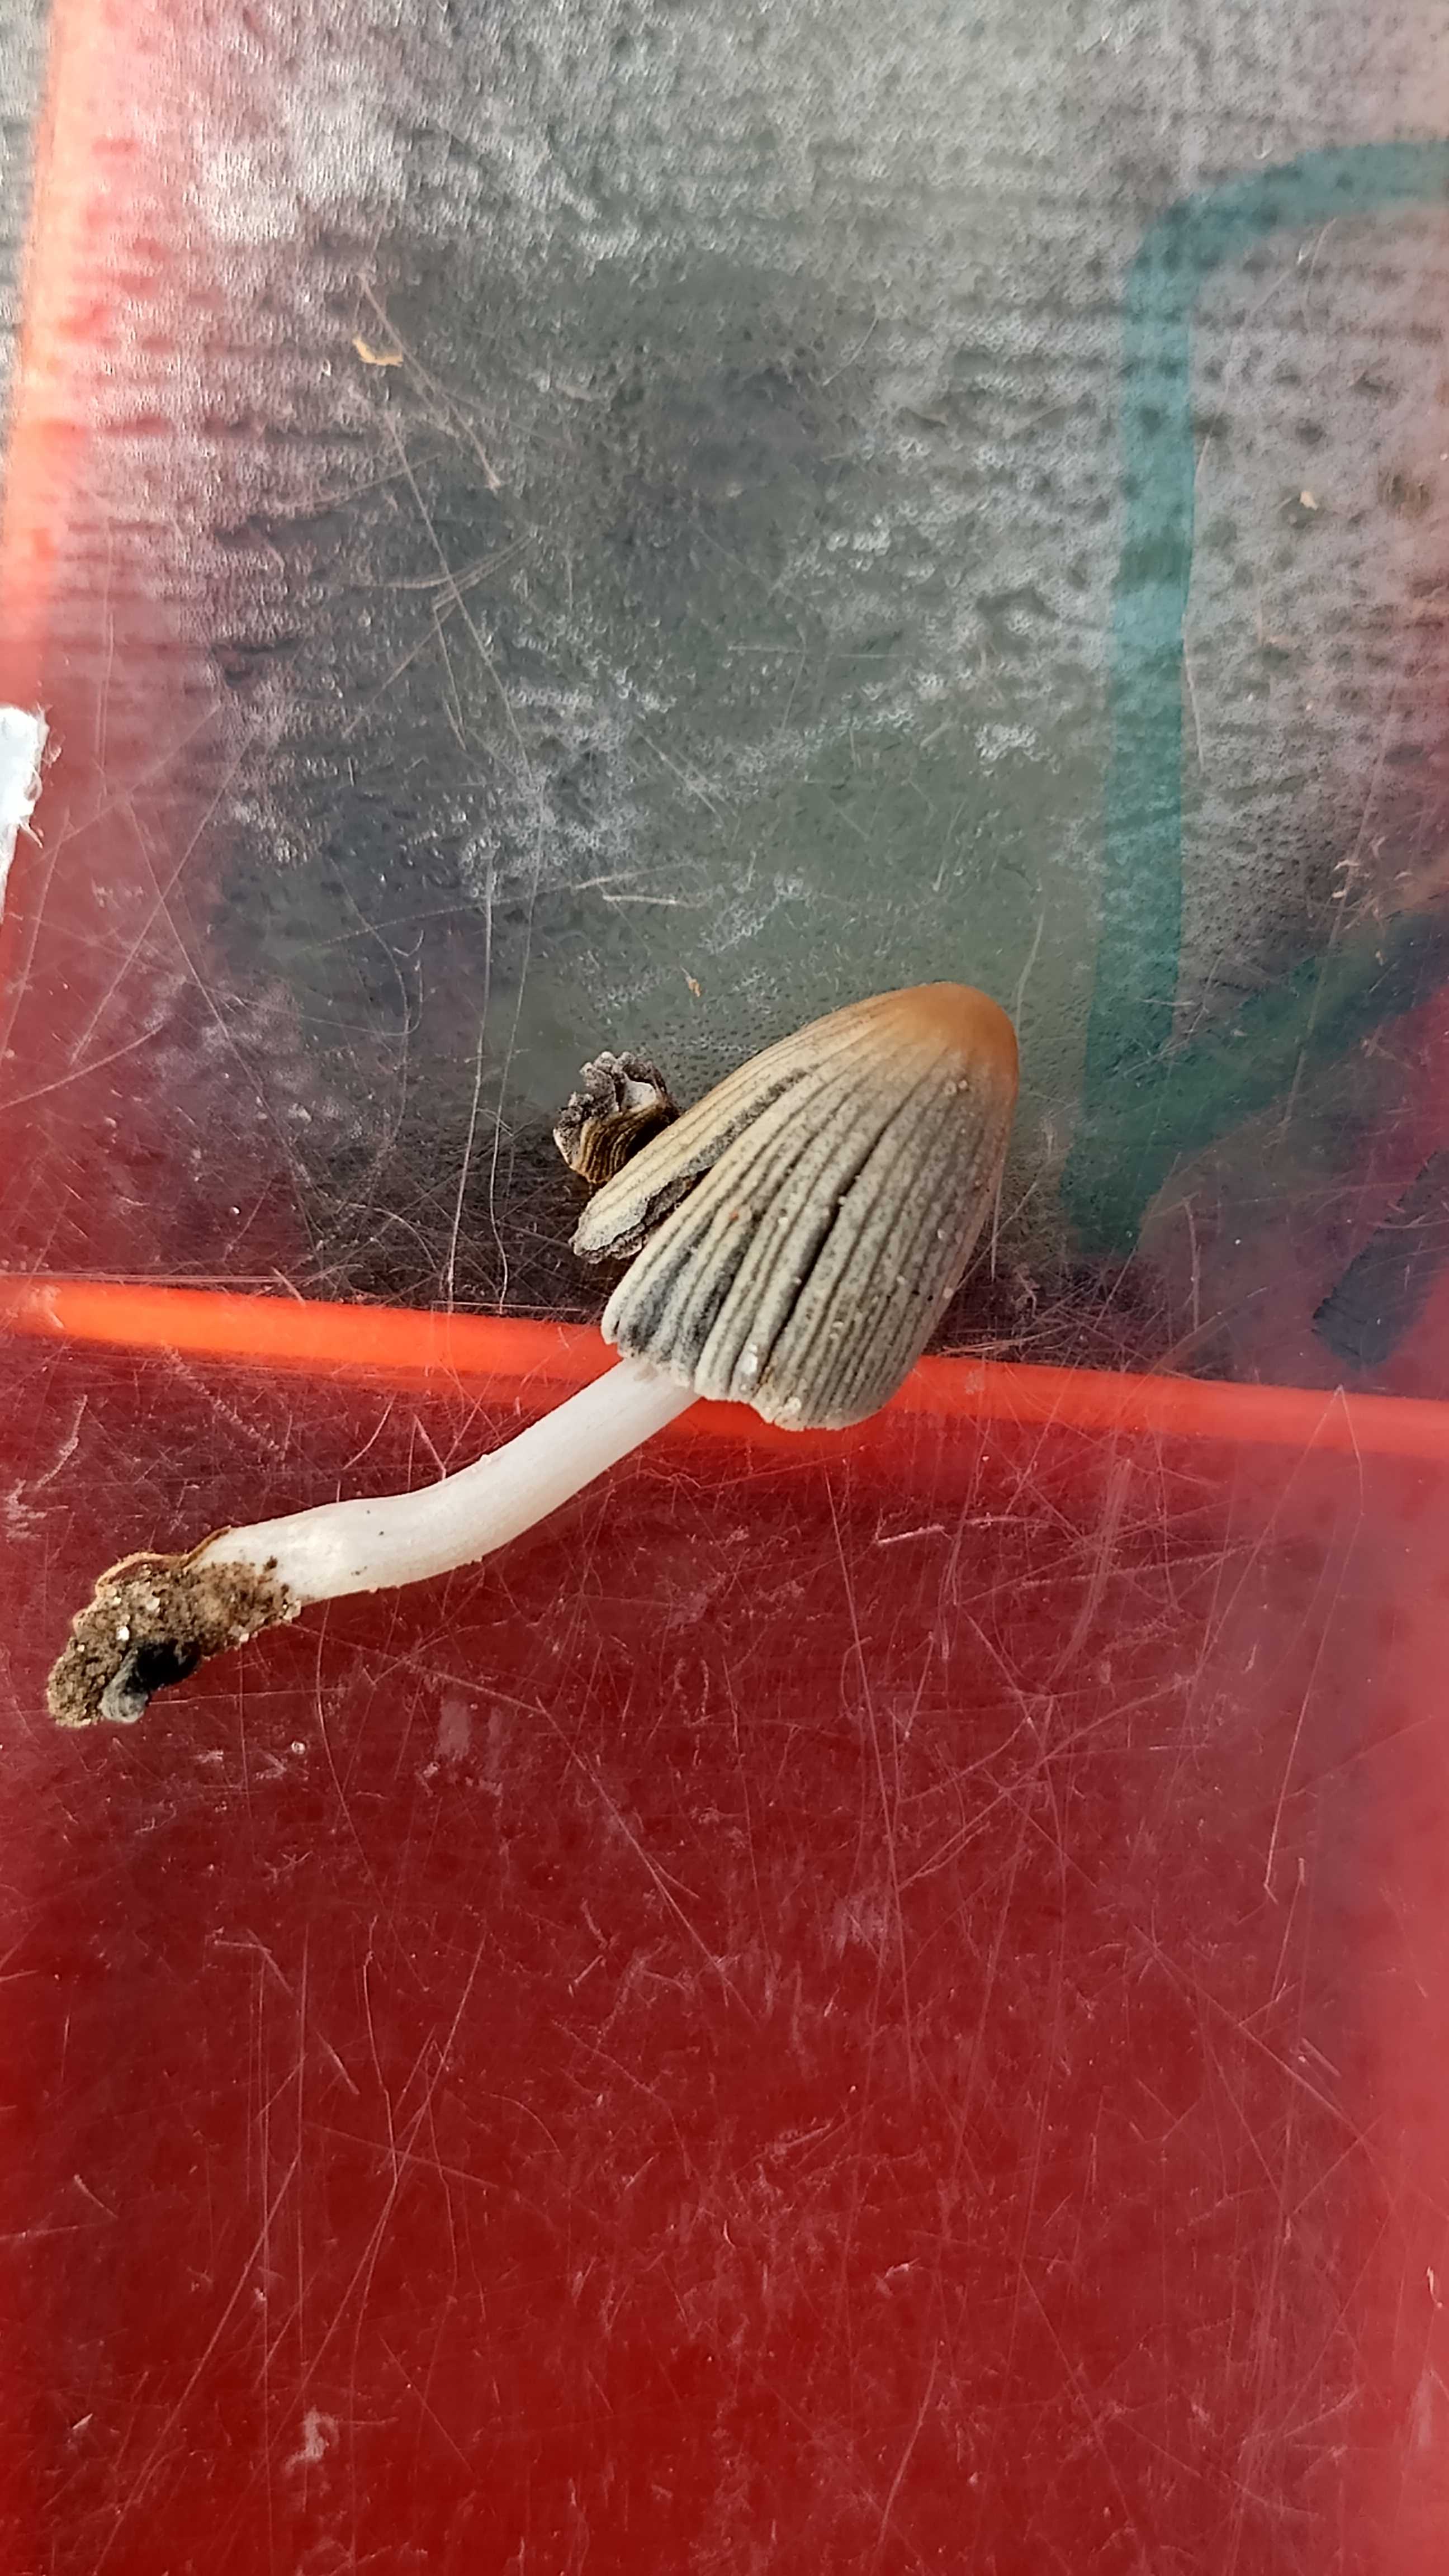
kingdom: Fungi
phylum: Basidiomycota
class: Agaricomycetes
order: Agaricales
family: Psathyrellaceae
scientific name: Psathyrellaceae
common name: mørkhatfamilien
